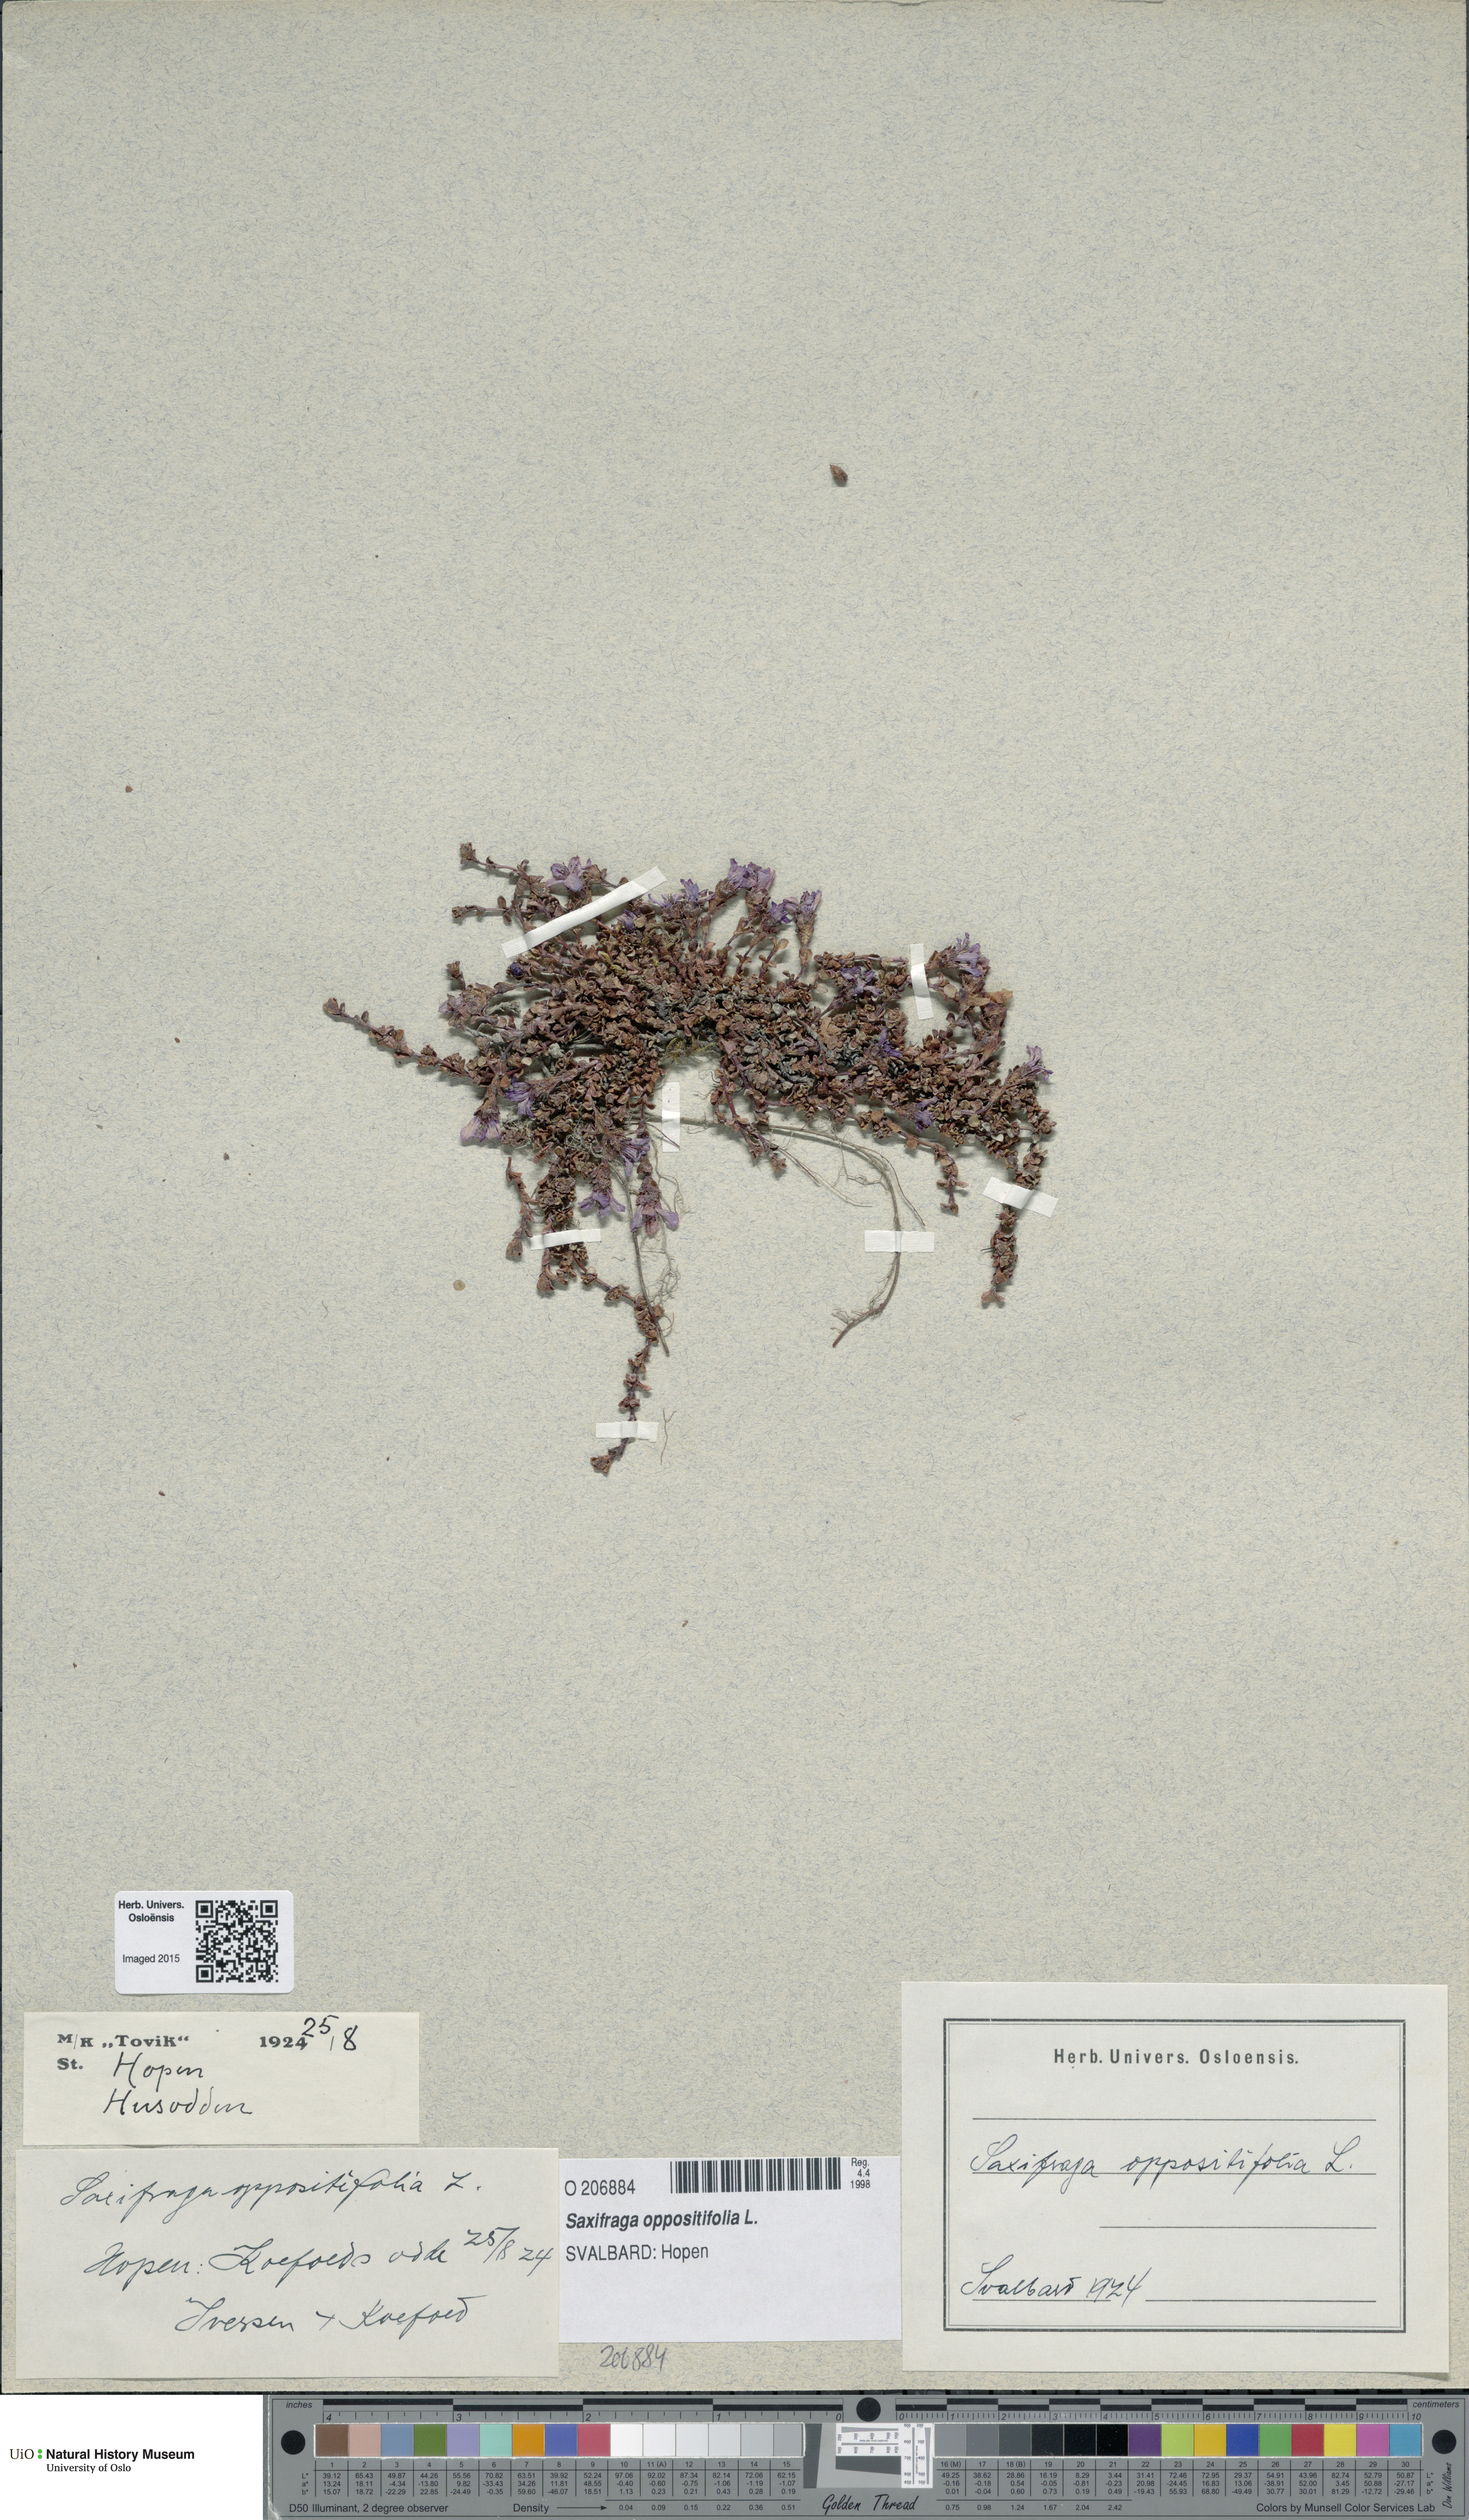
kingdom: Plantae
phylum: Tracheophyta
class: Magnoliopsida
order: Saxifragales
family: Saxifragaceae
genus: Saxifraga
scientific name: Saxifraga oppositifolia
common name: Purple saxifrage
